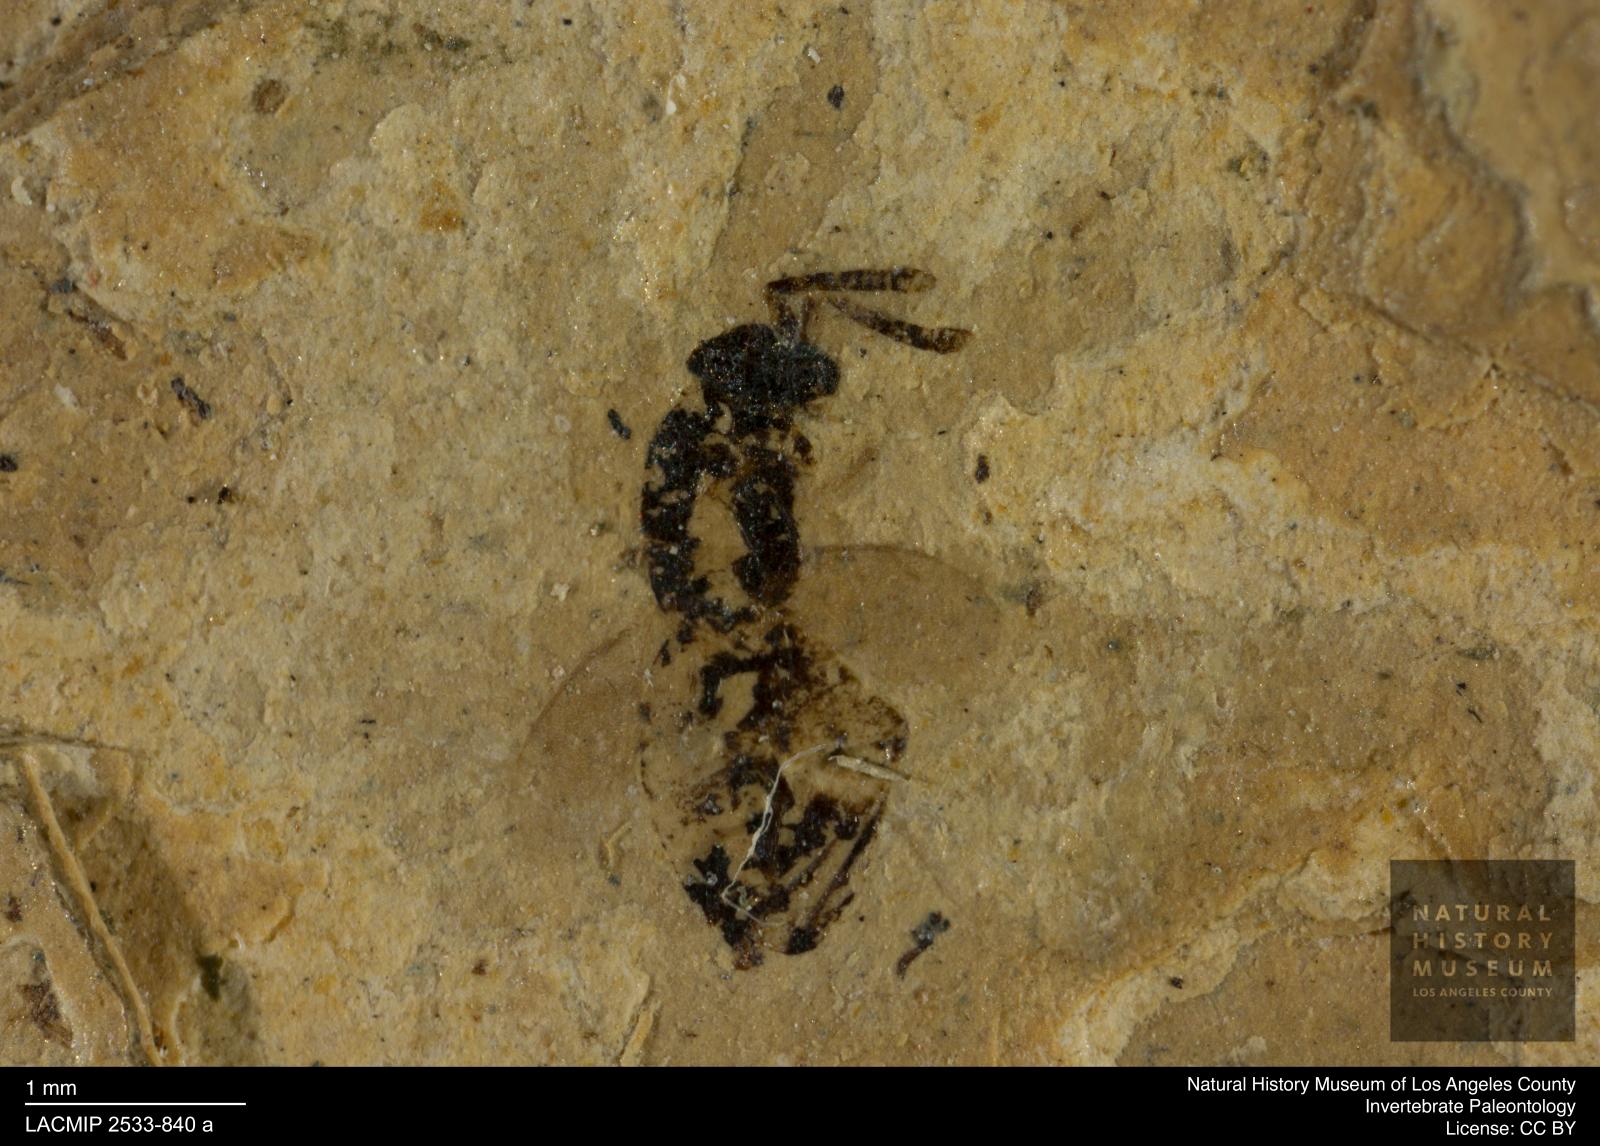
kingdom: Animalia
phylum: Arthropoda
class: Insecta
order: Hymenoptera
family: Pteromalidae
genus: Pteromalus
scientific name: Pteromalus abdominalis
